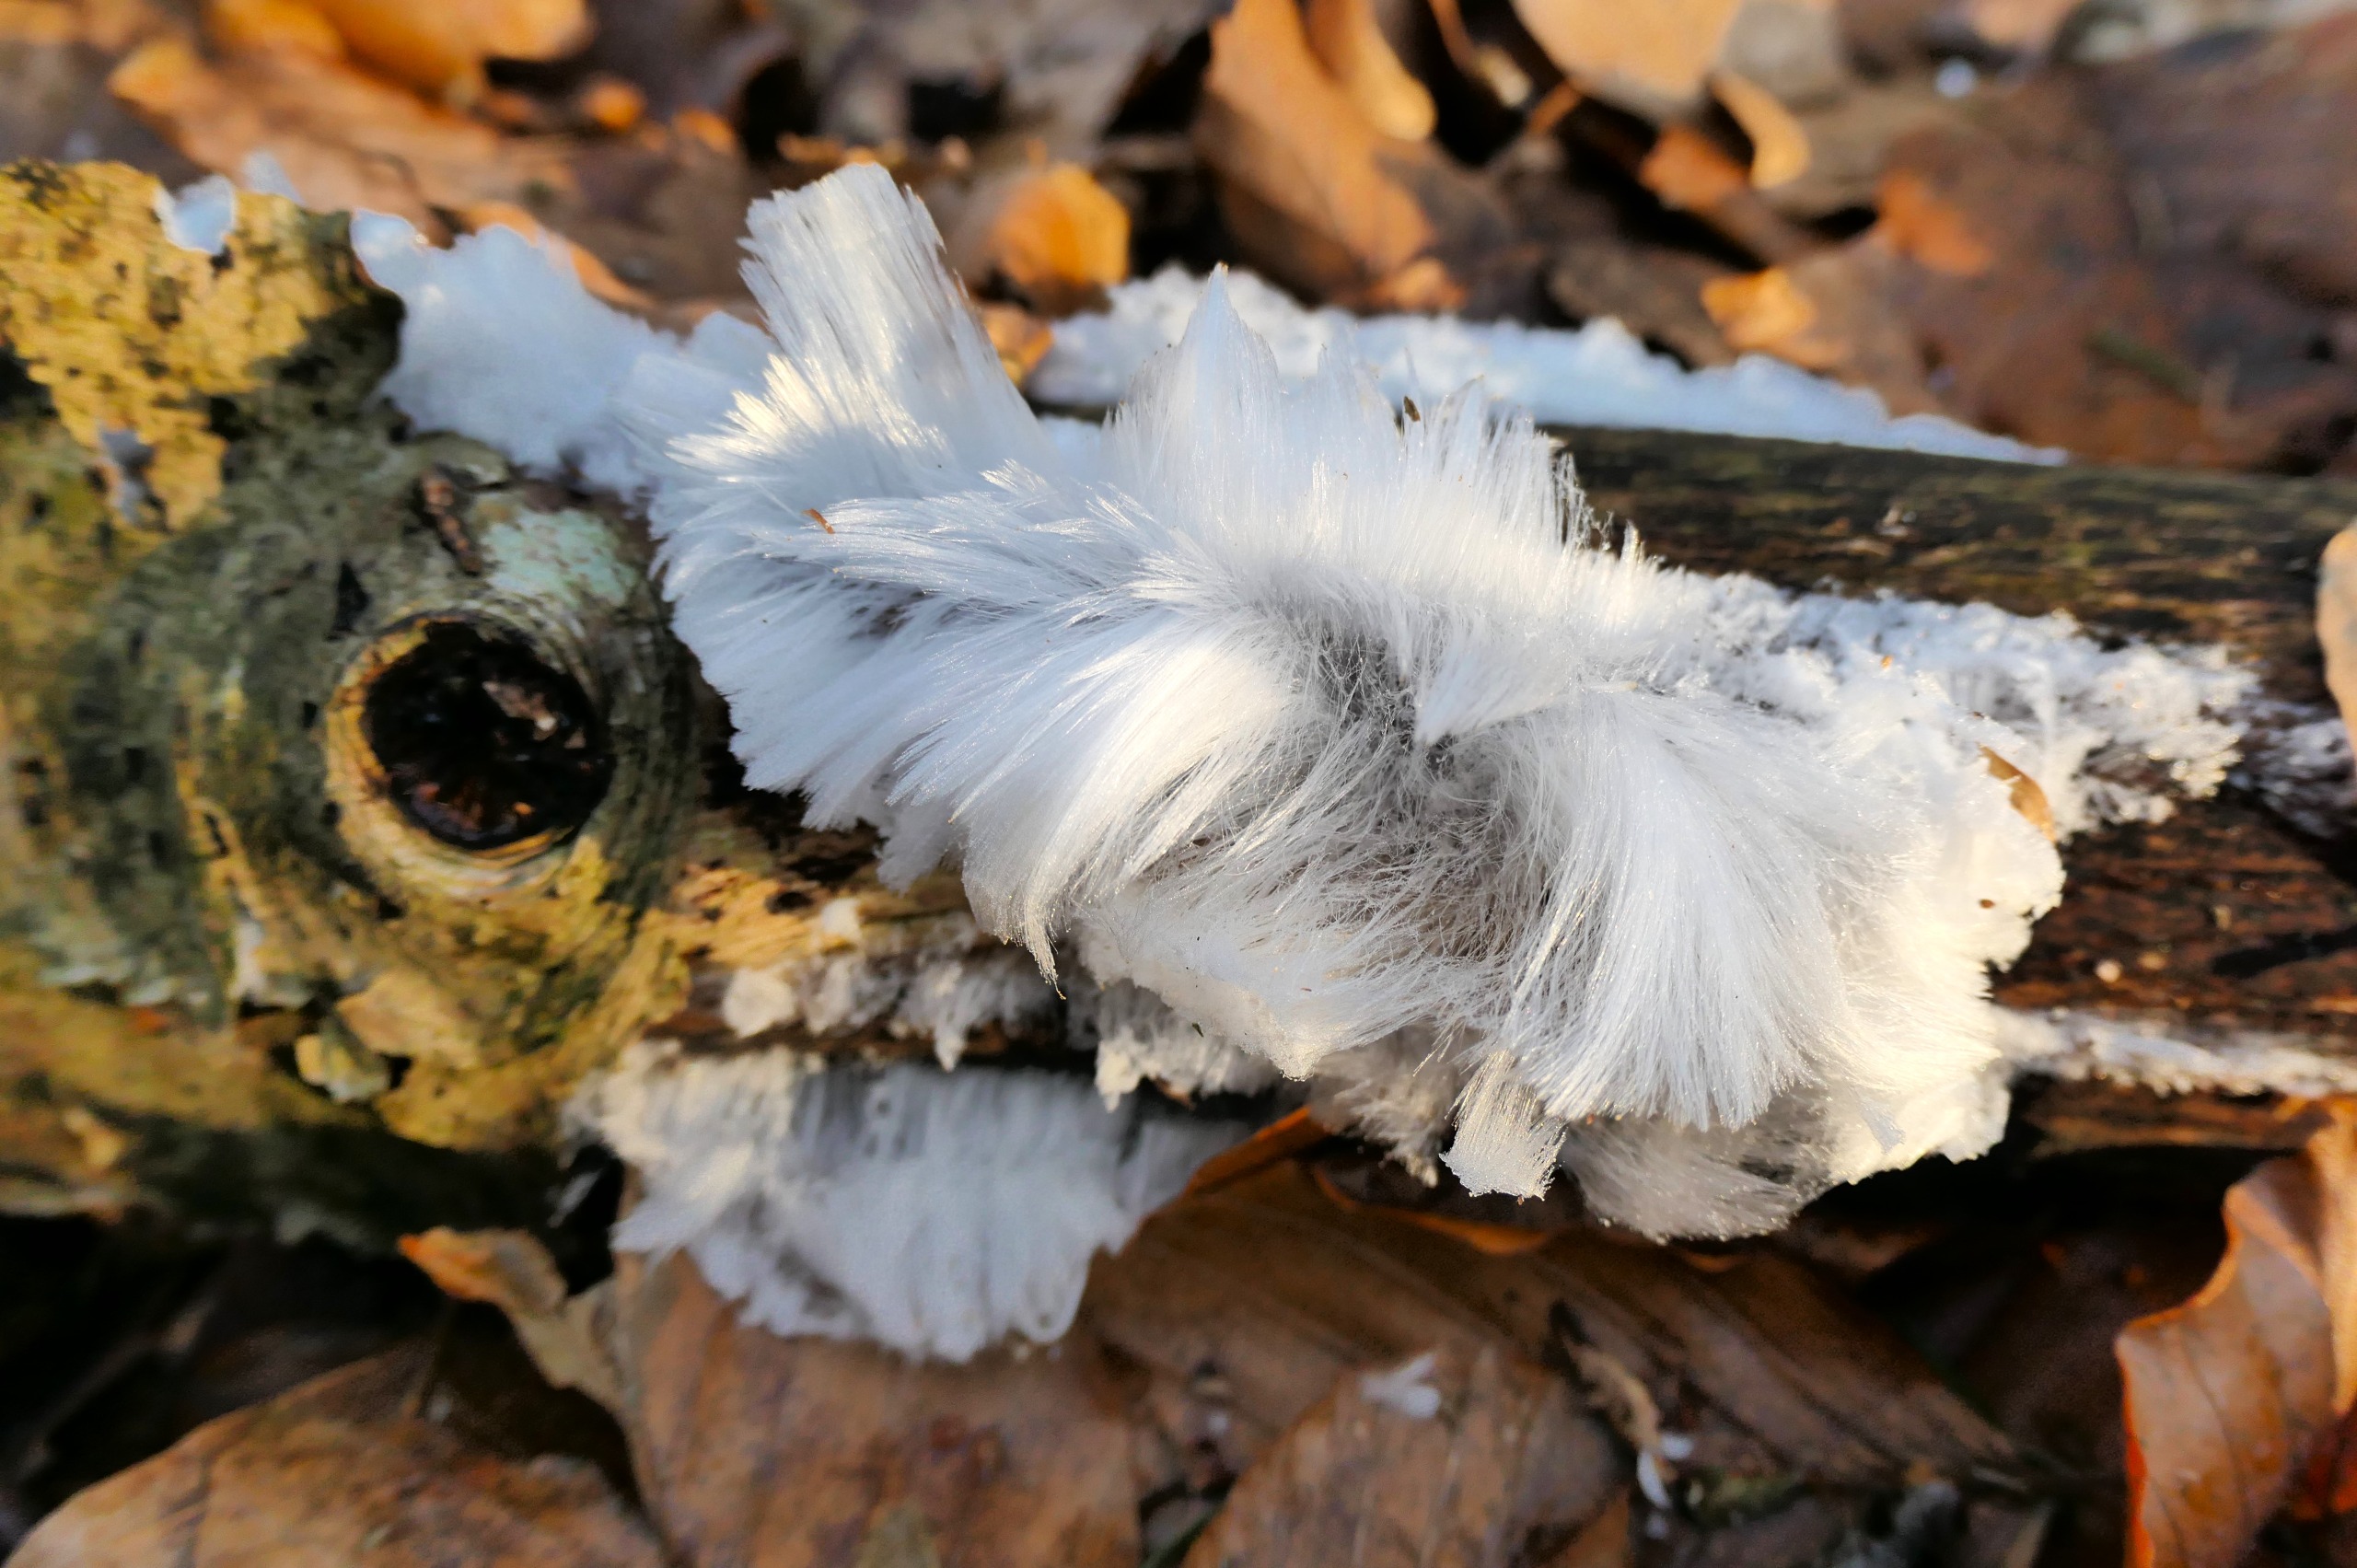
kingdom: Fungi
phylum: Basidiomycota
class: Tremellomycetes
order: Tremellales
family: Exidiaceae
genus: Exidiopsis
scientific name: Exidiopsis effusa
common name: Smuk bævrehinde
